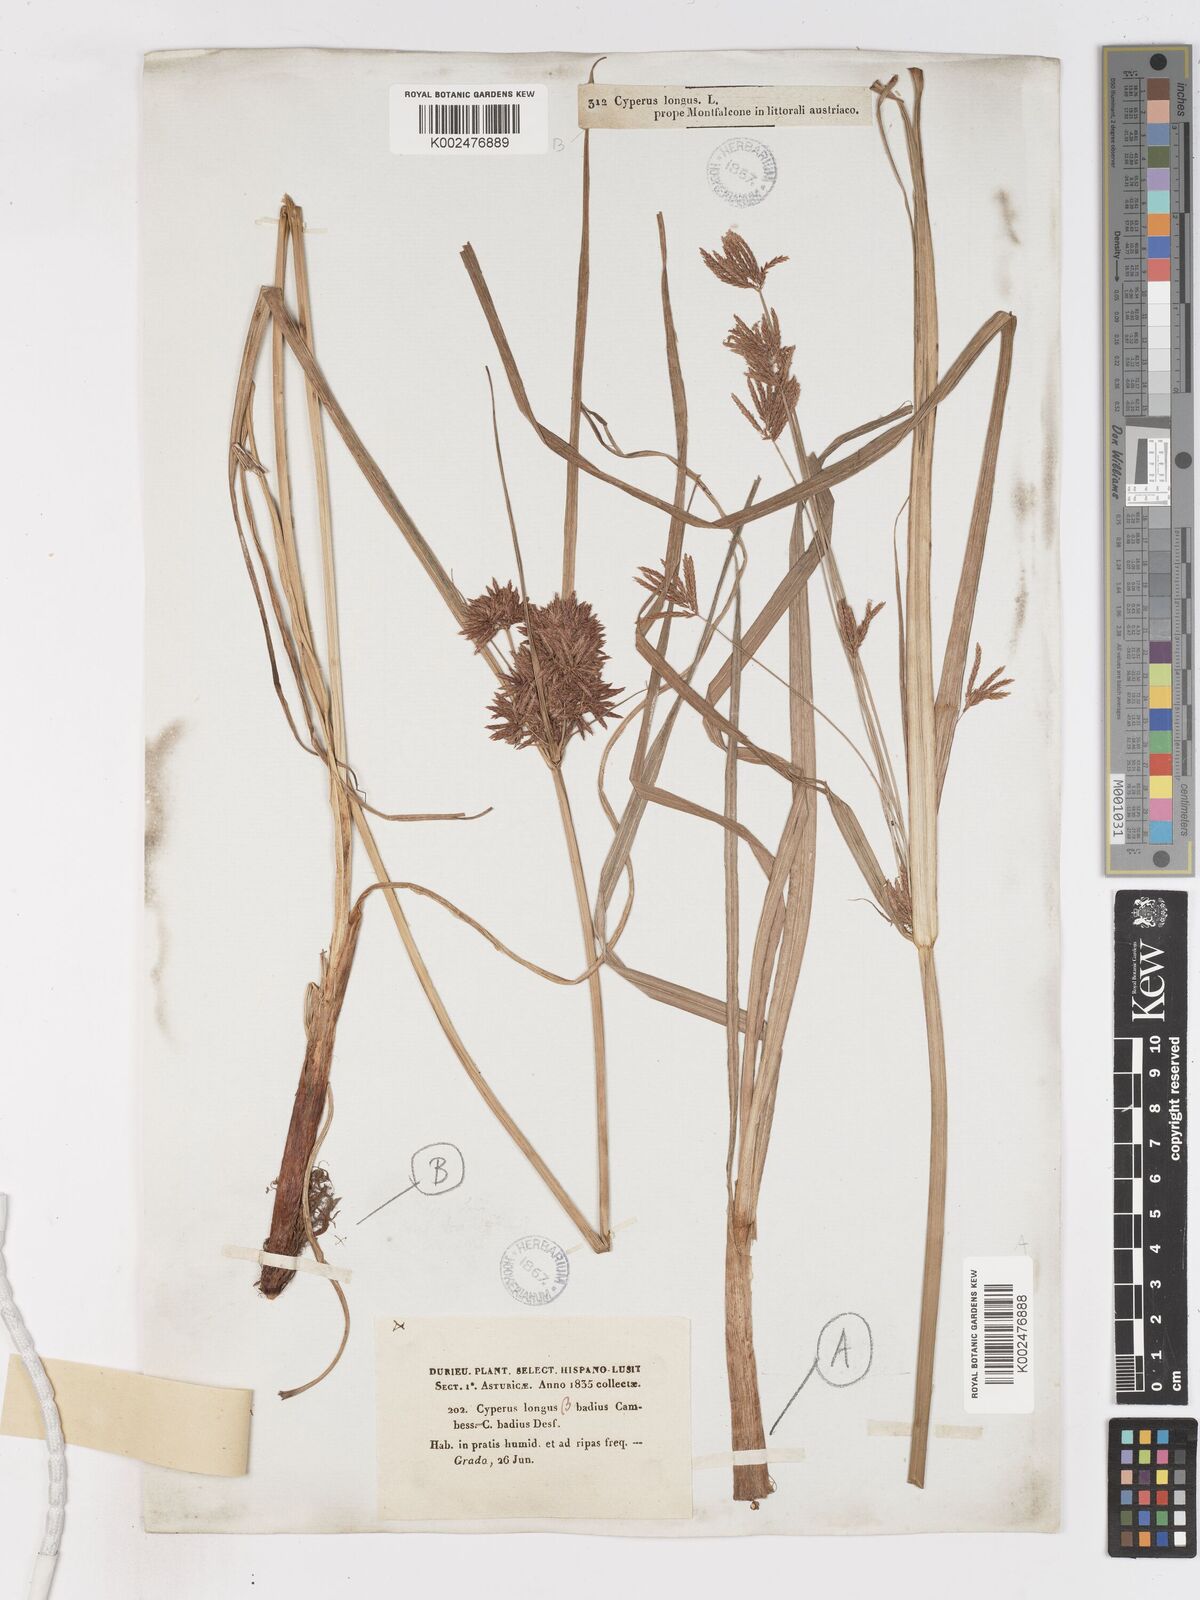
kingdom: Plantae
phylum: Tracheophyta
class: Liliopsida
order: Poales
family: Cyperaceae
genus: Cyperus
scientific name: Cyperus longus
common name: Galingale
